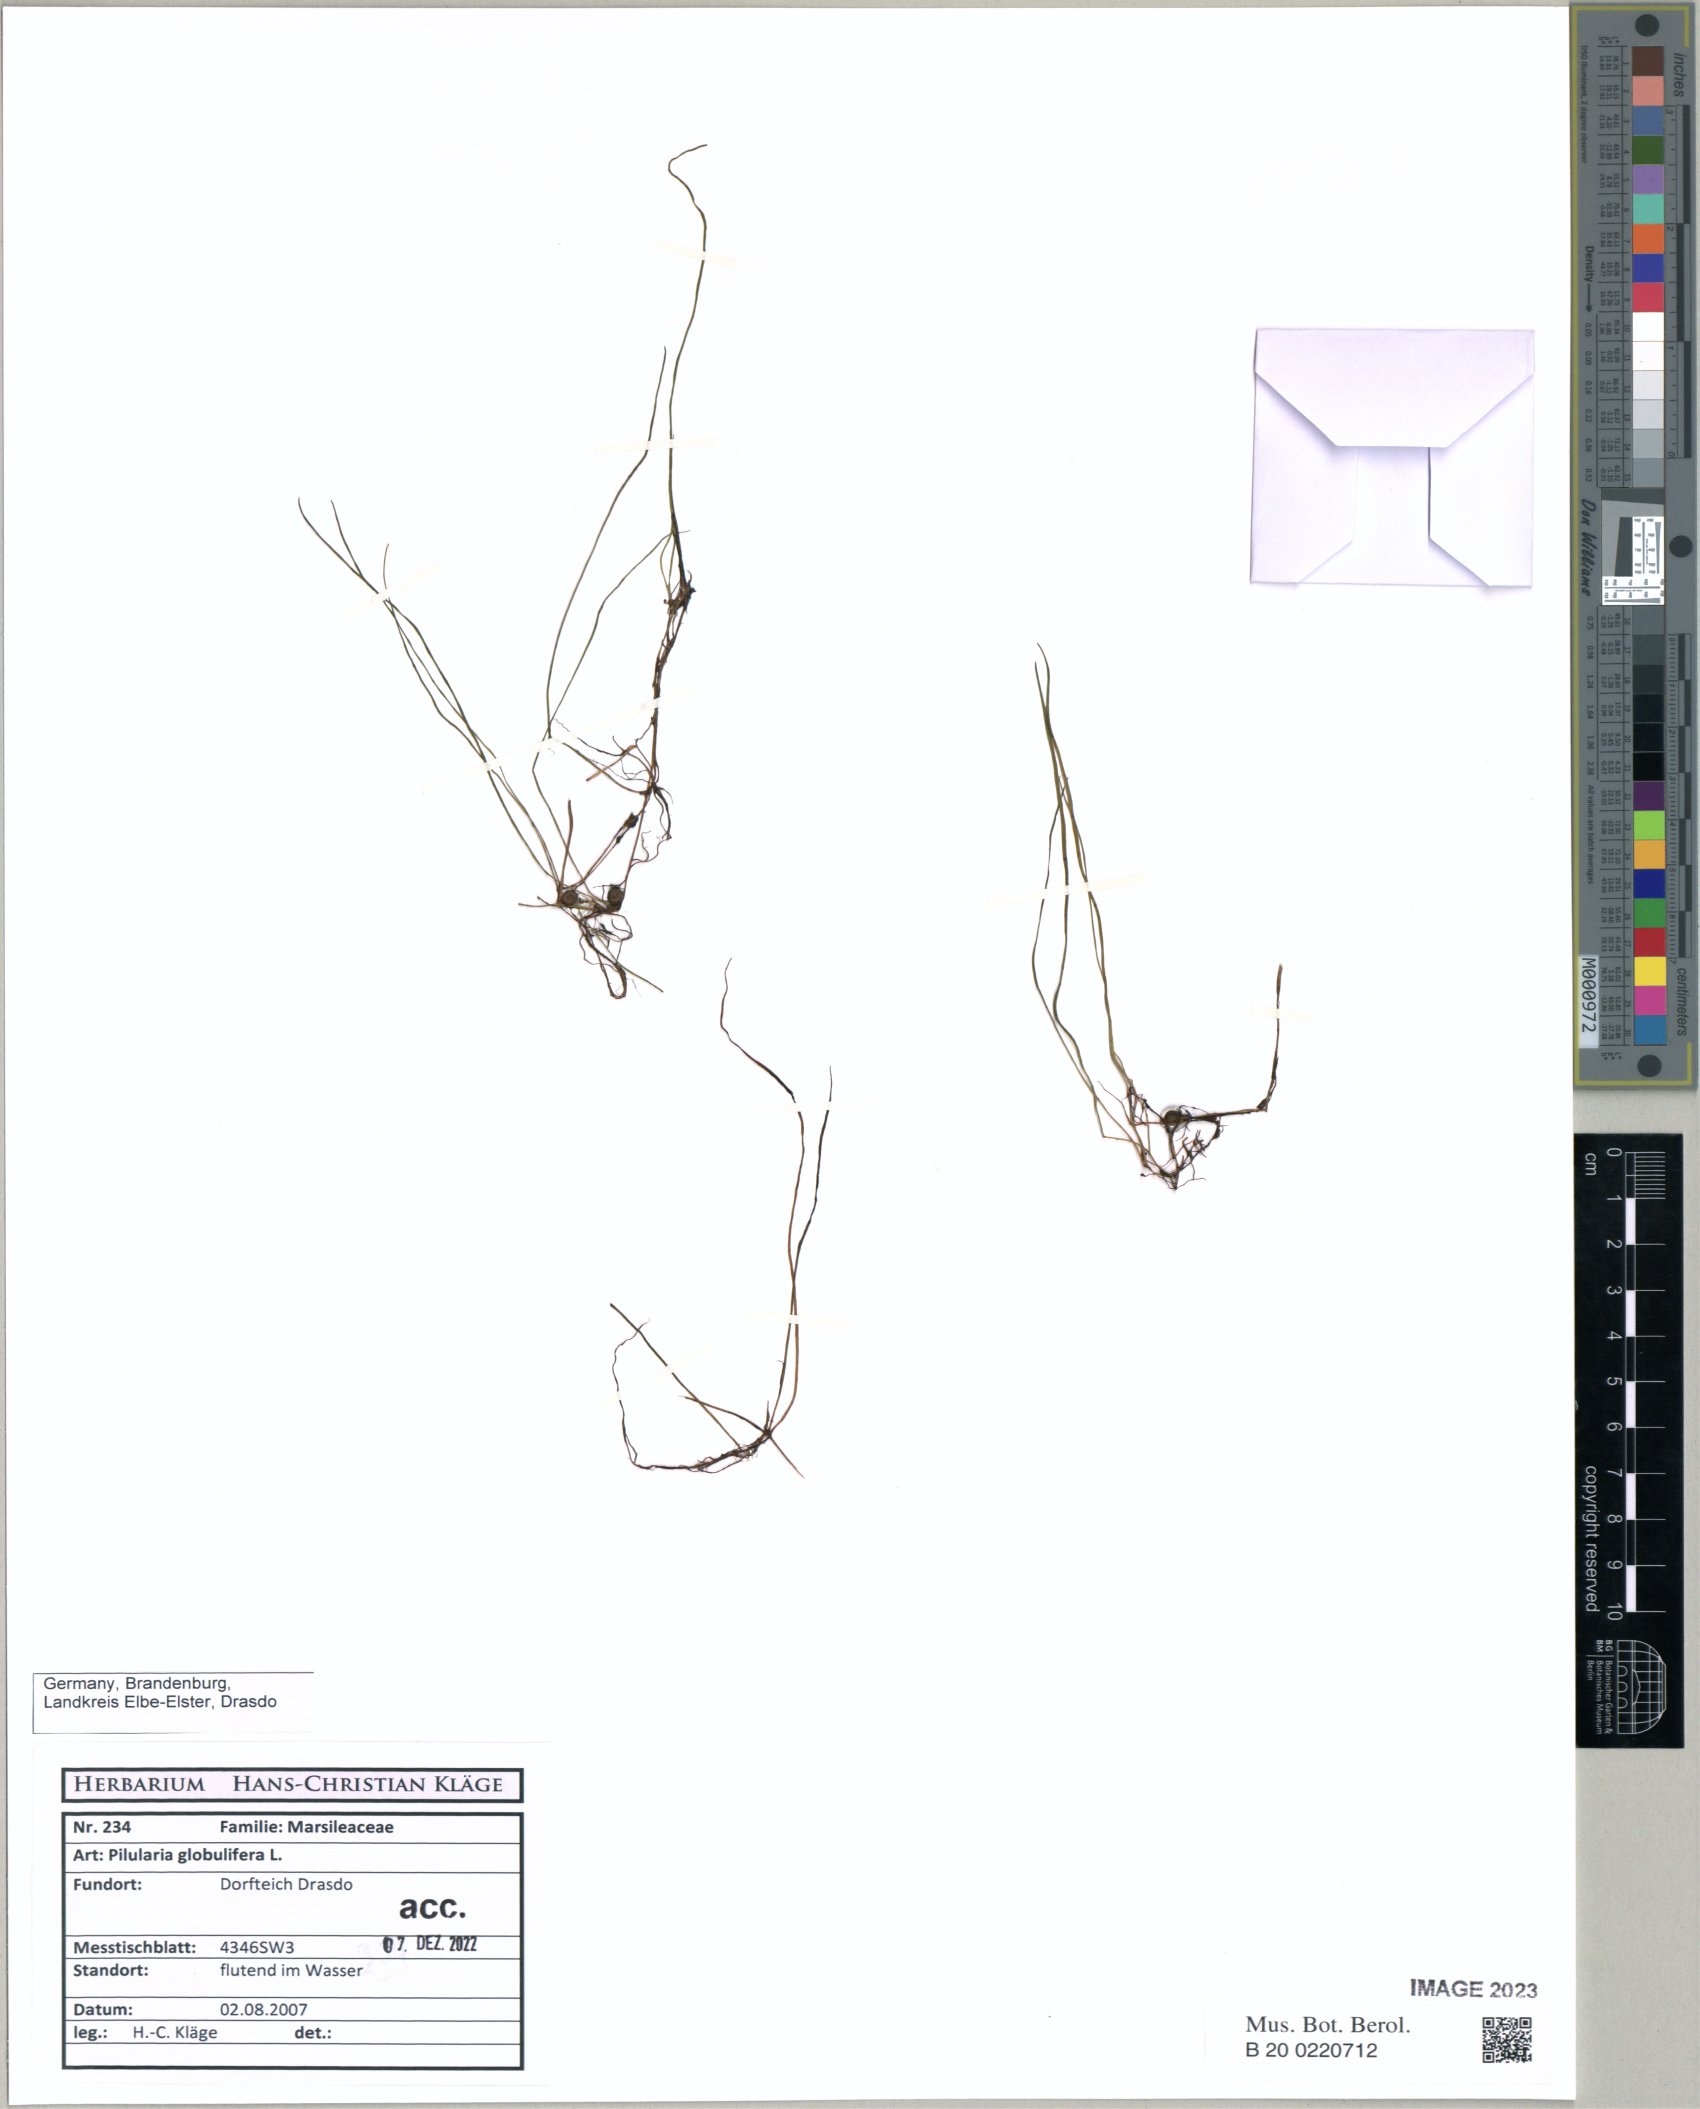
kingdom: Plantae
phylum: Tracheophyta
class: Polypodiopsida
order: Salviniales
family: Marsileaceae
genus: Pilularia
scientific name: Pilularia globulifera
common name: Pillwort
